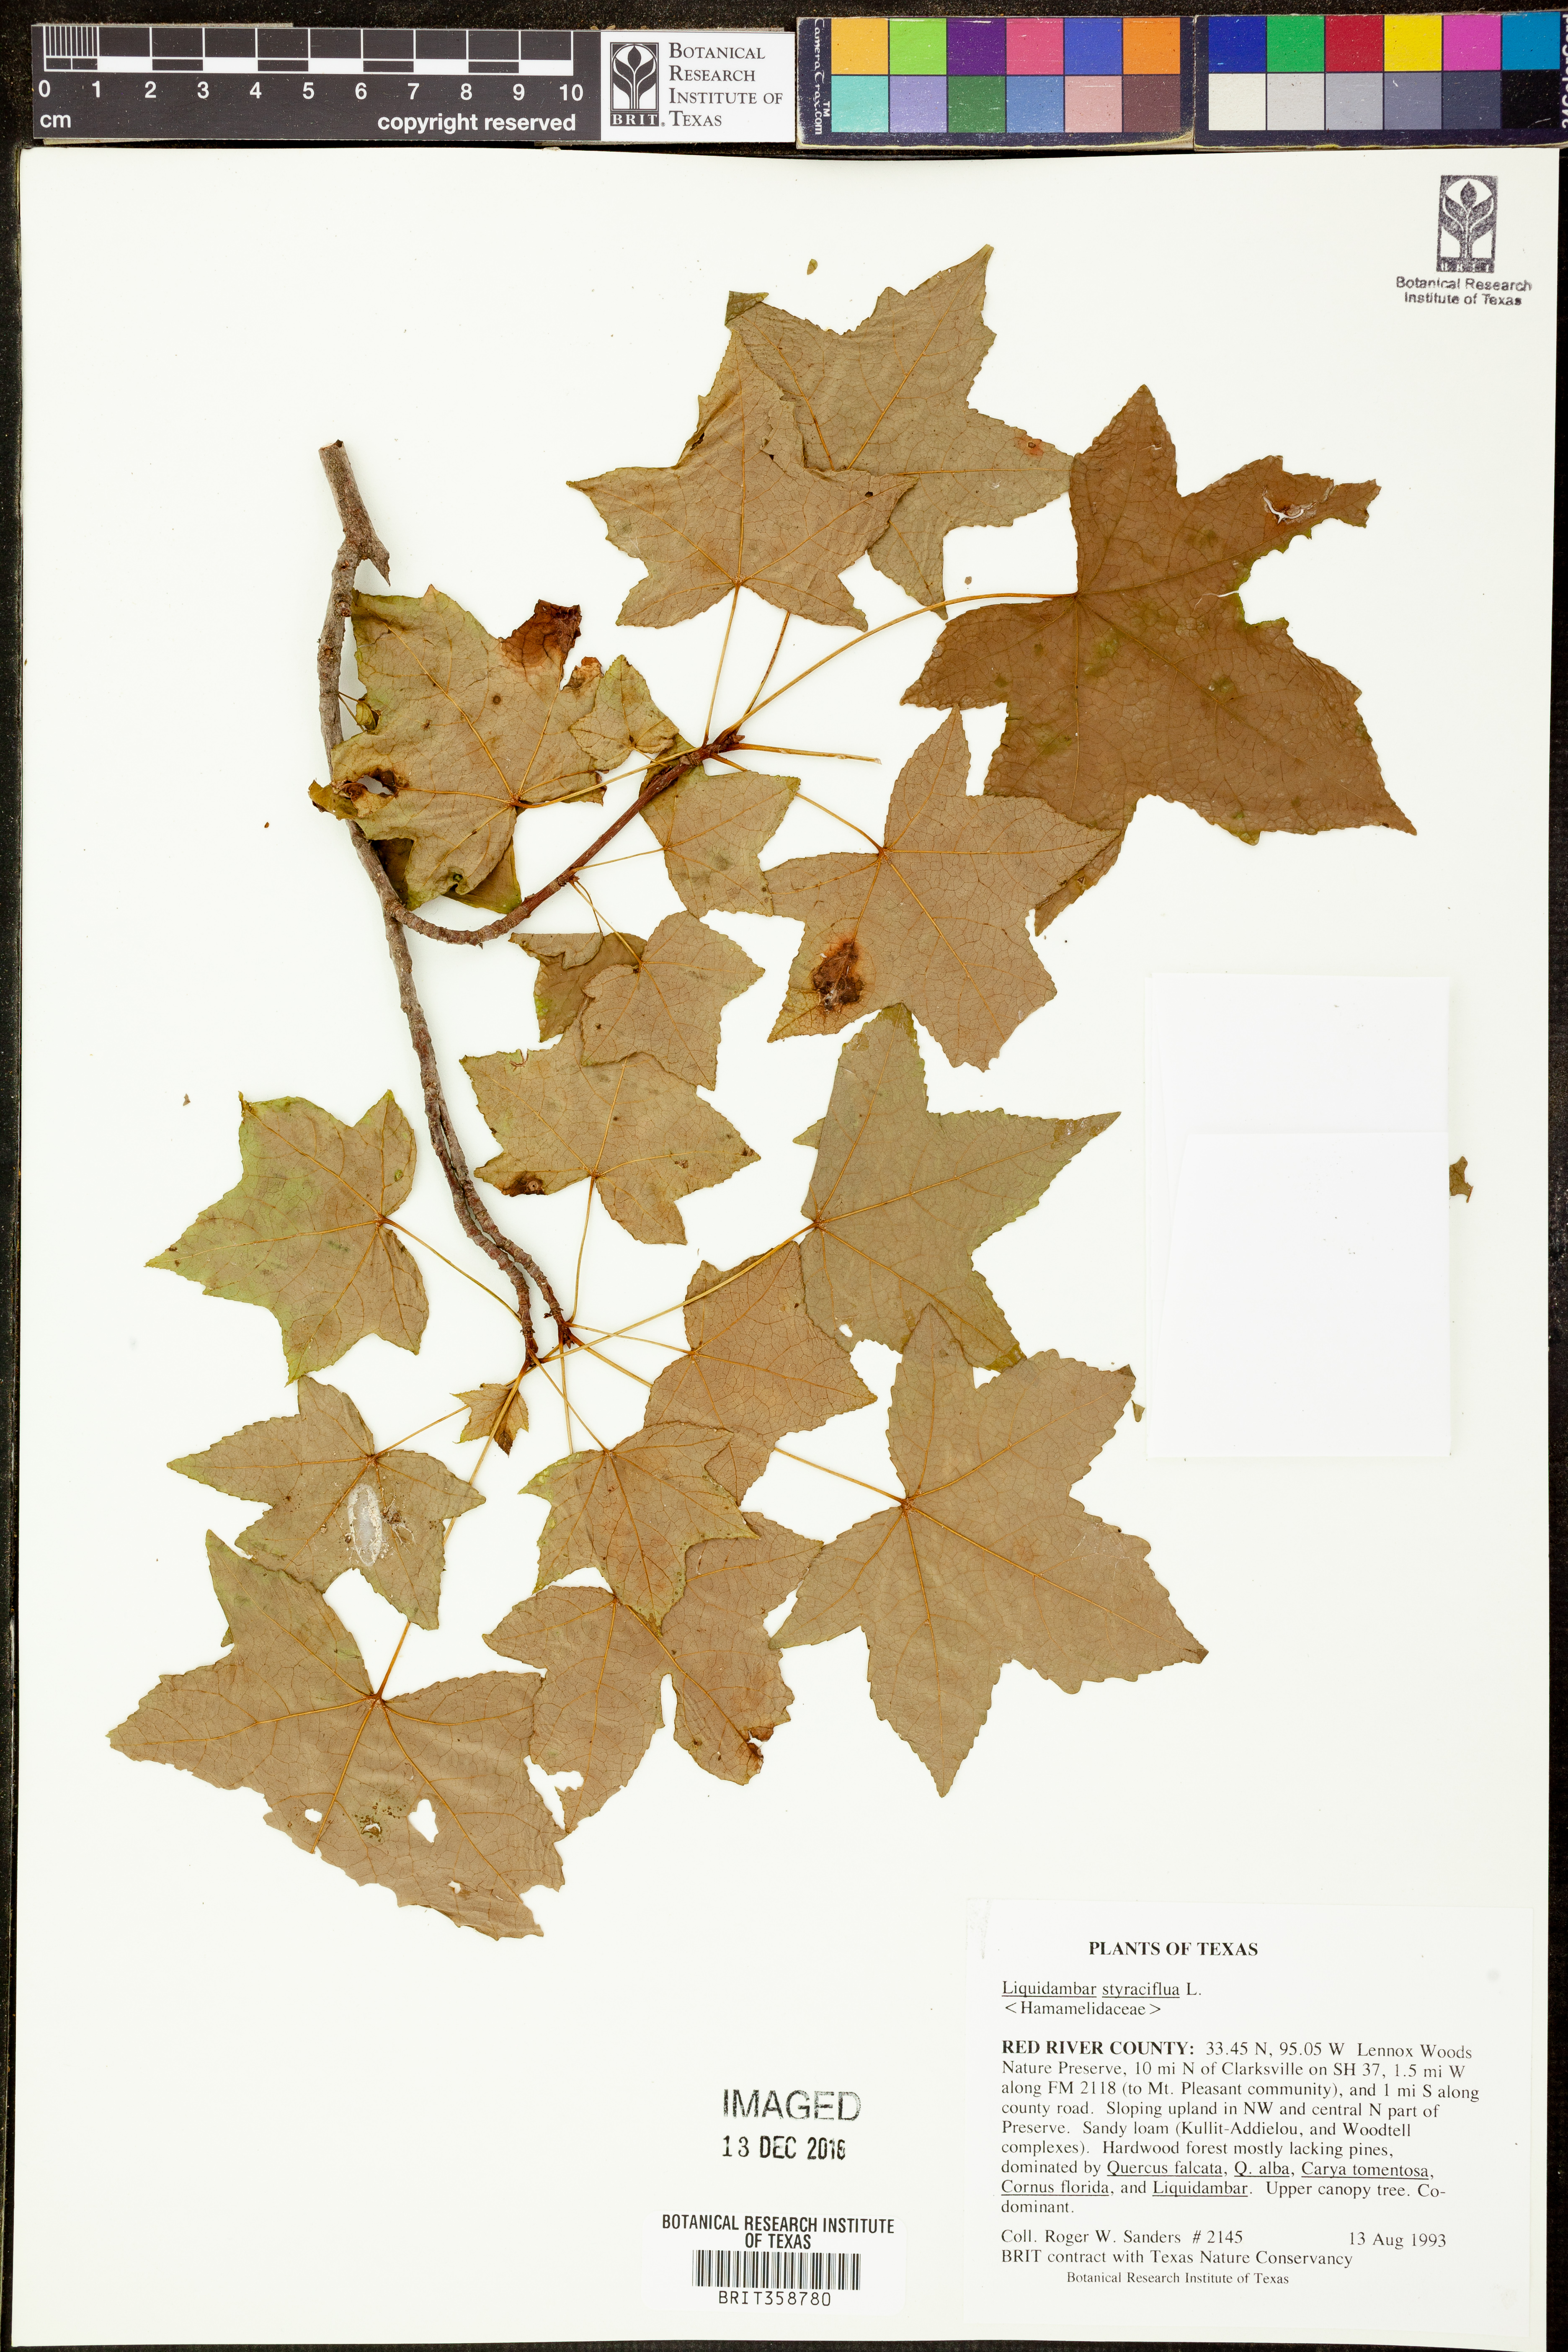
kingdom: Plantae
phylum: Tracheophyta
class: Magnoliopsida
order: Saxifragales
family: Altingiaceae
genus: Liquidambar
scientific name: Liquidambar styraciflua
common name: Sweet gum
